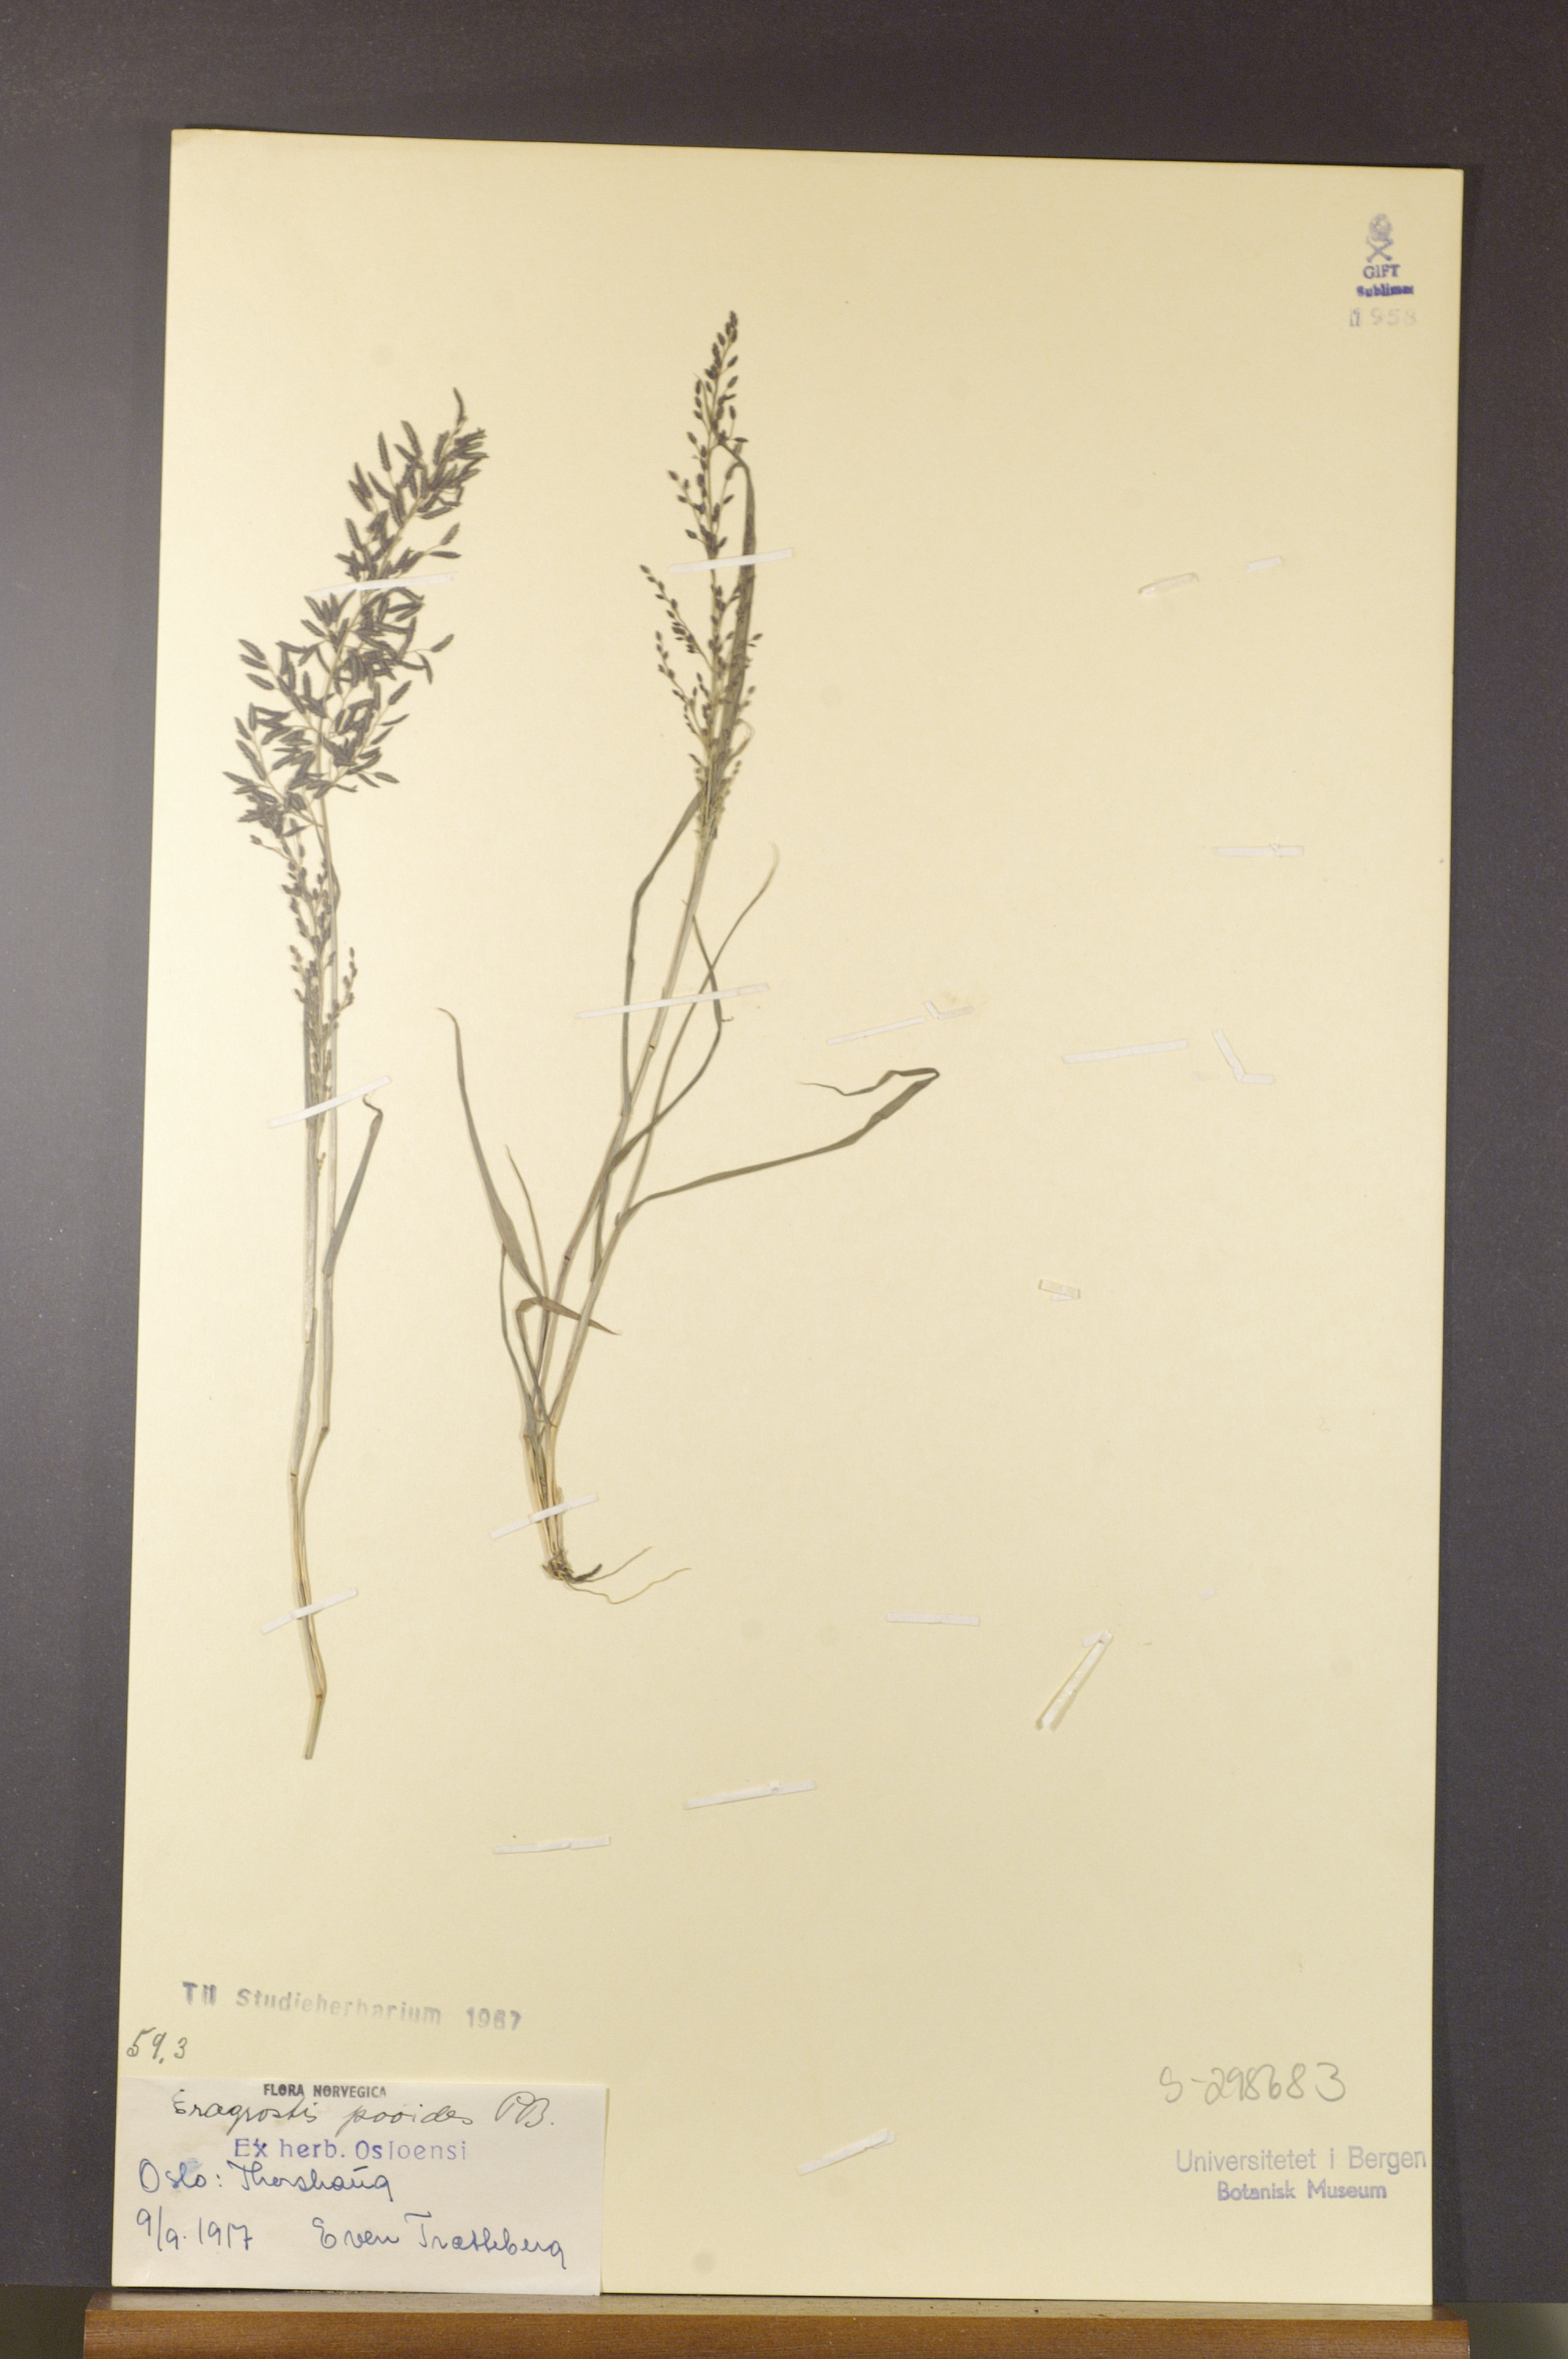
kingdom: Plantae
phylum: Tracheophyta
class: Liliopsida
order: Poales
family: Poaceae
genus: Eragrostis
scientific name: Eragrostis minor
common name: Small love-grass
